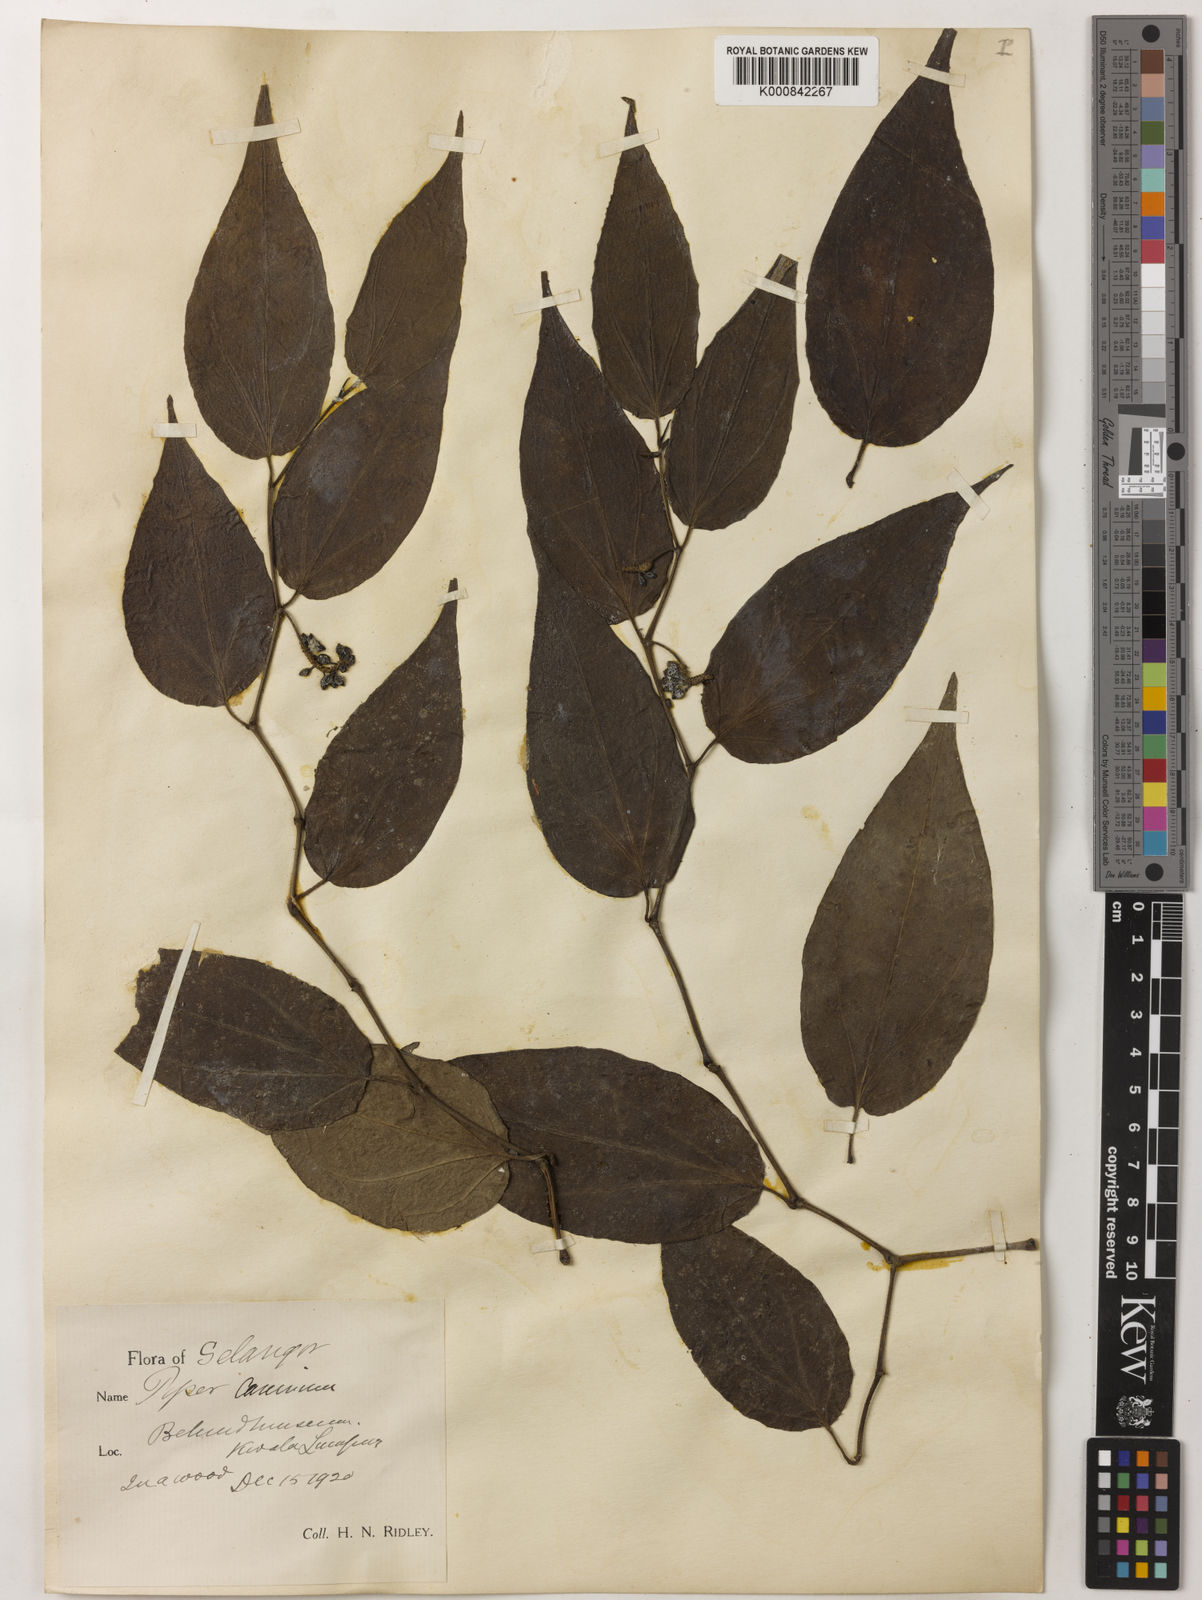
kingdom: Plantae
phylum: Tracheophyta
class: Magnoliopsida
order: Piperales
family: Piperaceae
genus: Piper
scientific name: Piper lanatum
